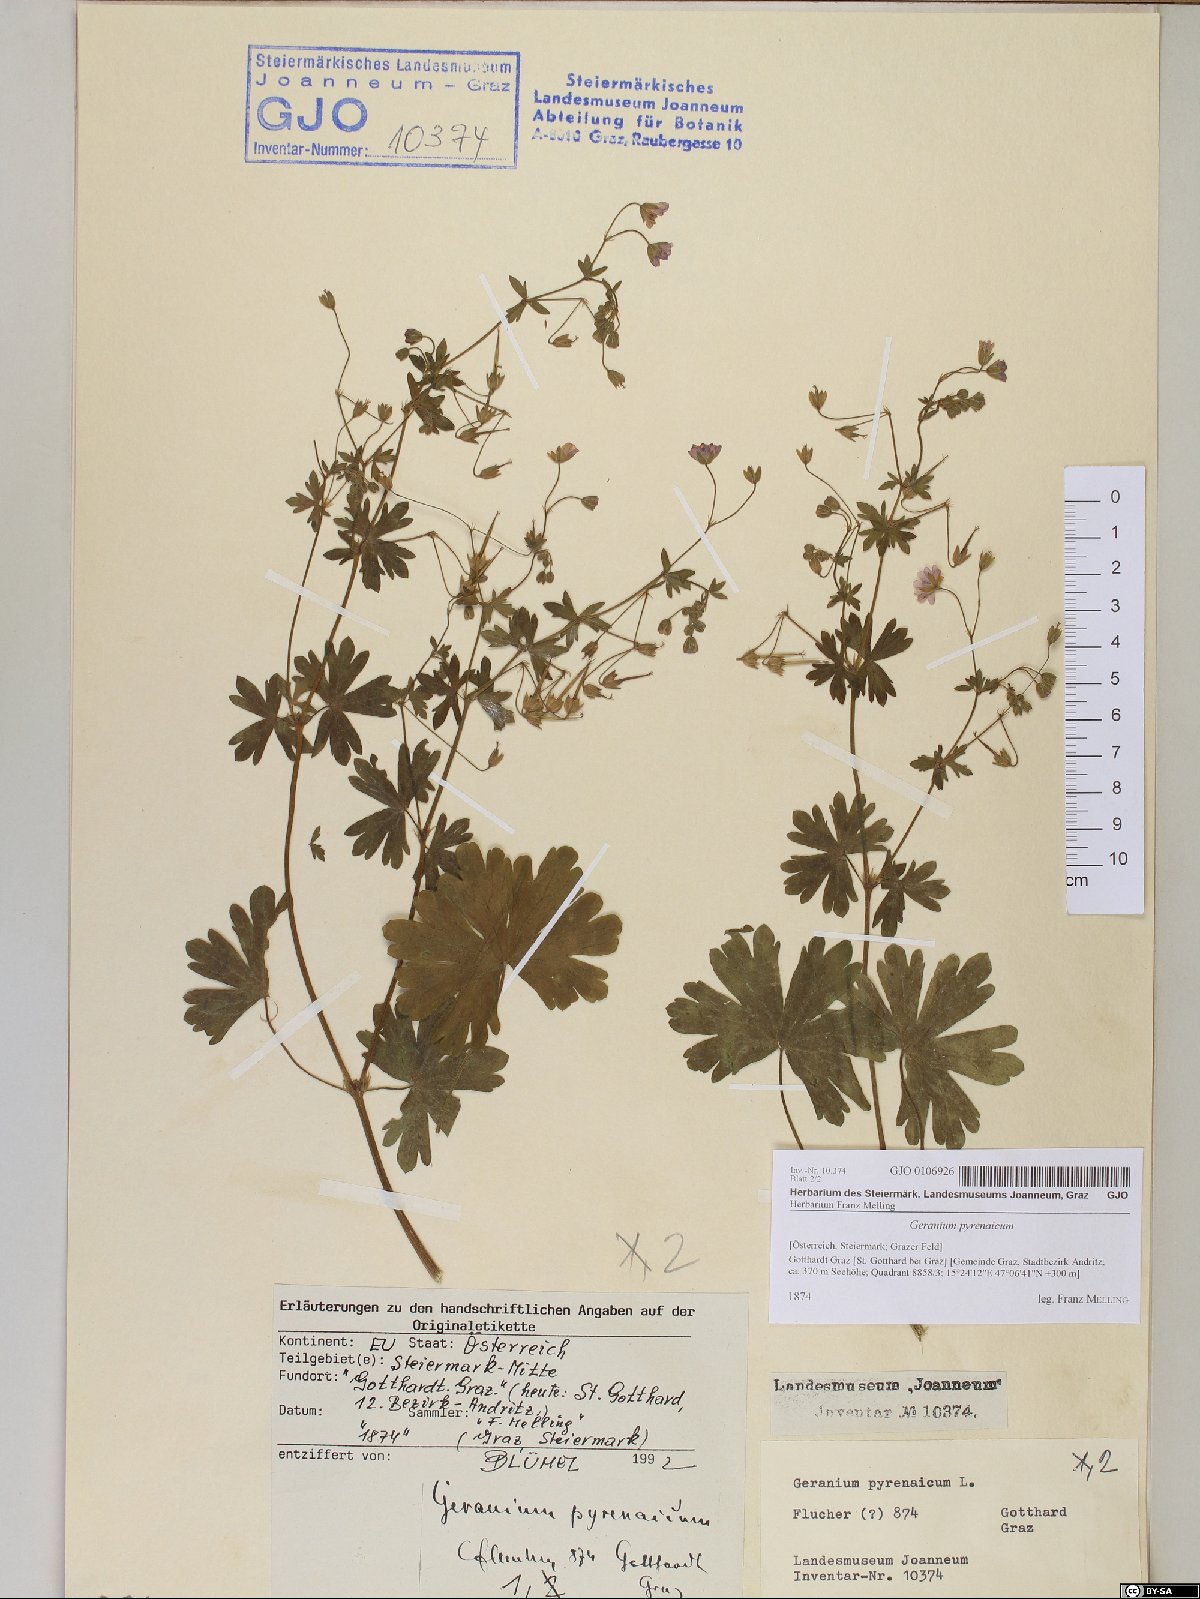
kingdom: Plantae
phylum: Tracheophyta
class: Magnoliopsida
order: Geraniales
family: Geraniaceae
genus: Geranium
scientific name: Geranium pyrenaicum
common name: Hedgerow crane's-bill
